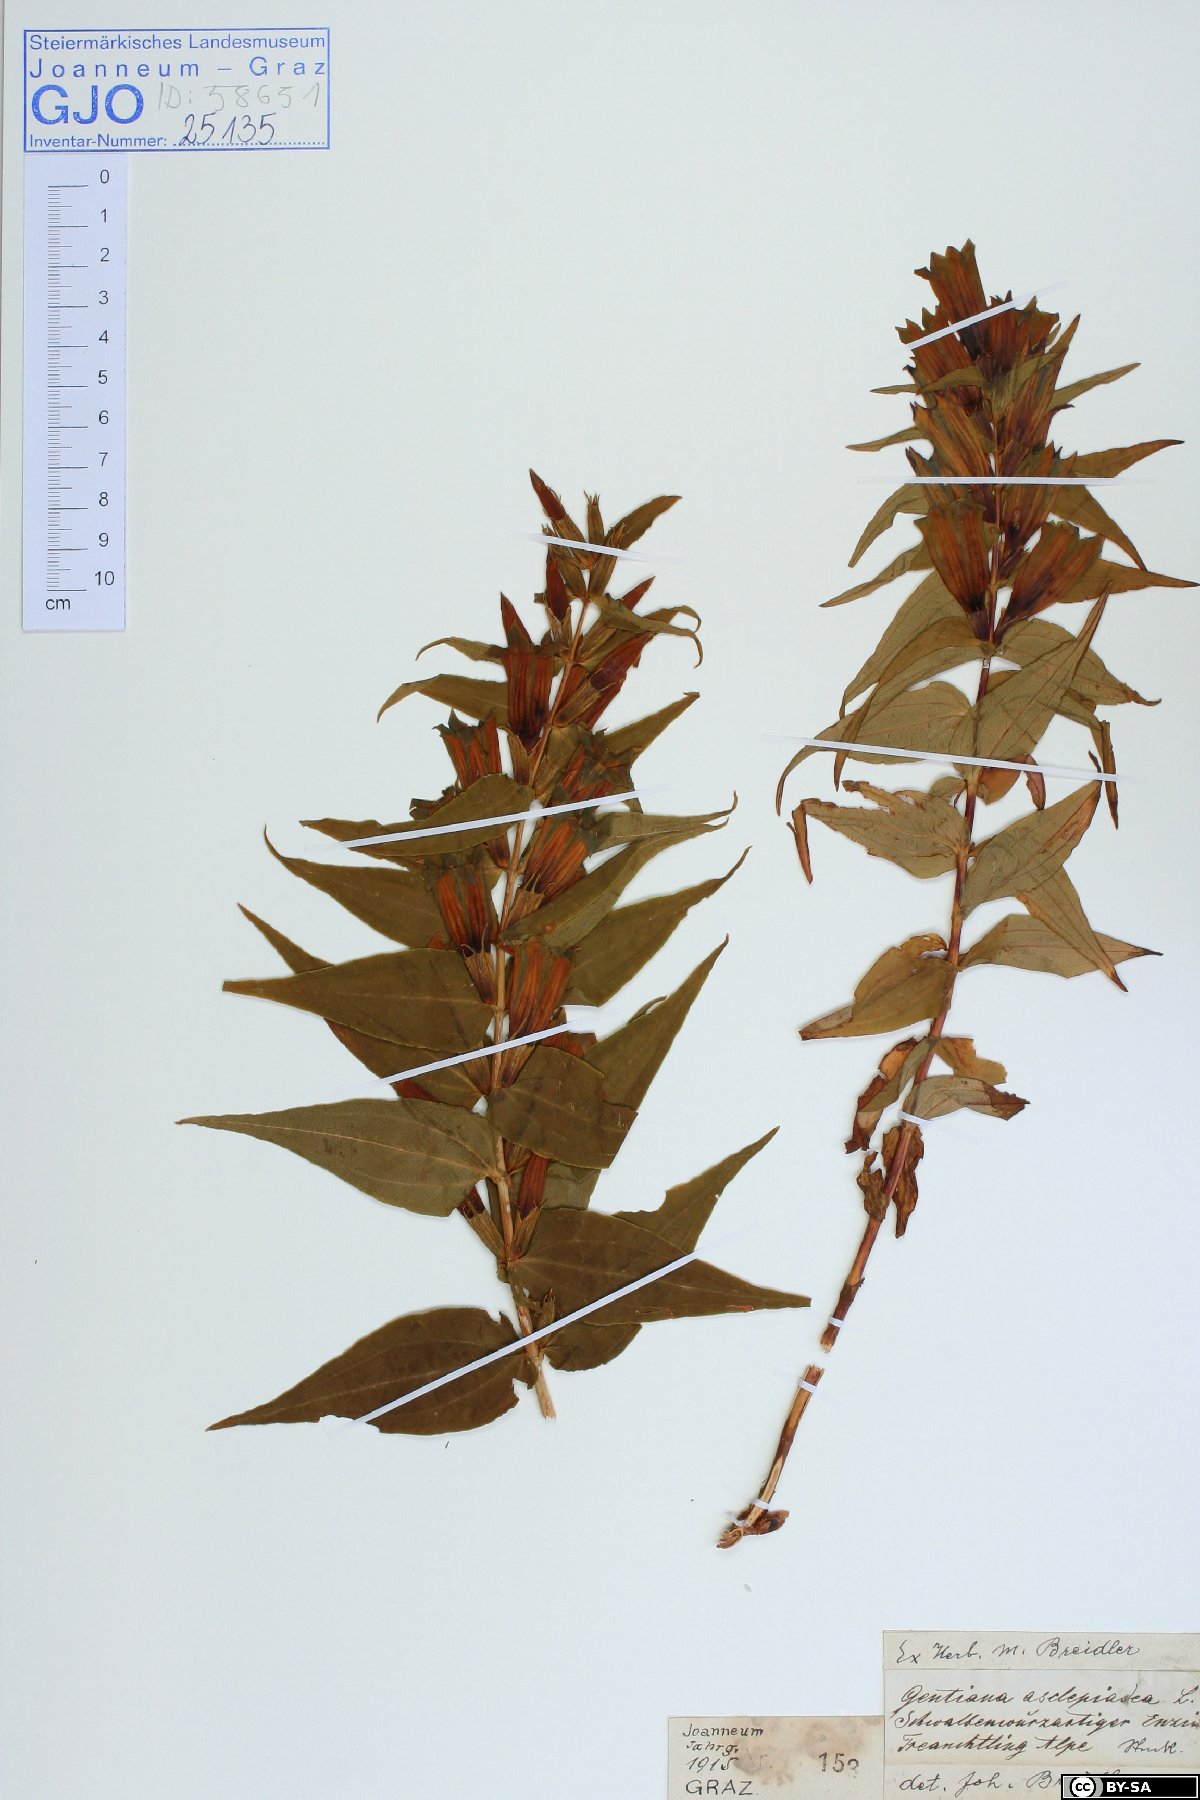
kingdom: Plantae
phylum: Tracheophyta
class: Magnoliopsida
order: Gentianales
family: Gentianaceae
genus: Gentiana
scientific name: Gentiana asclepiadea
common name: Willow gentian
